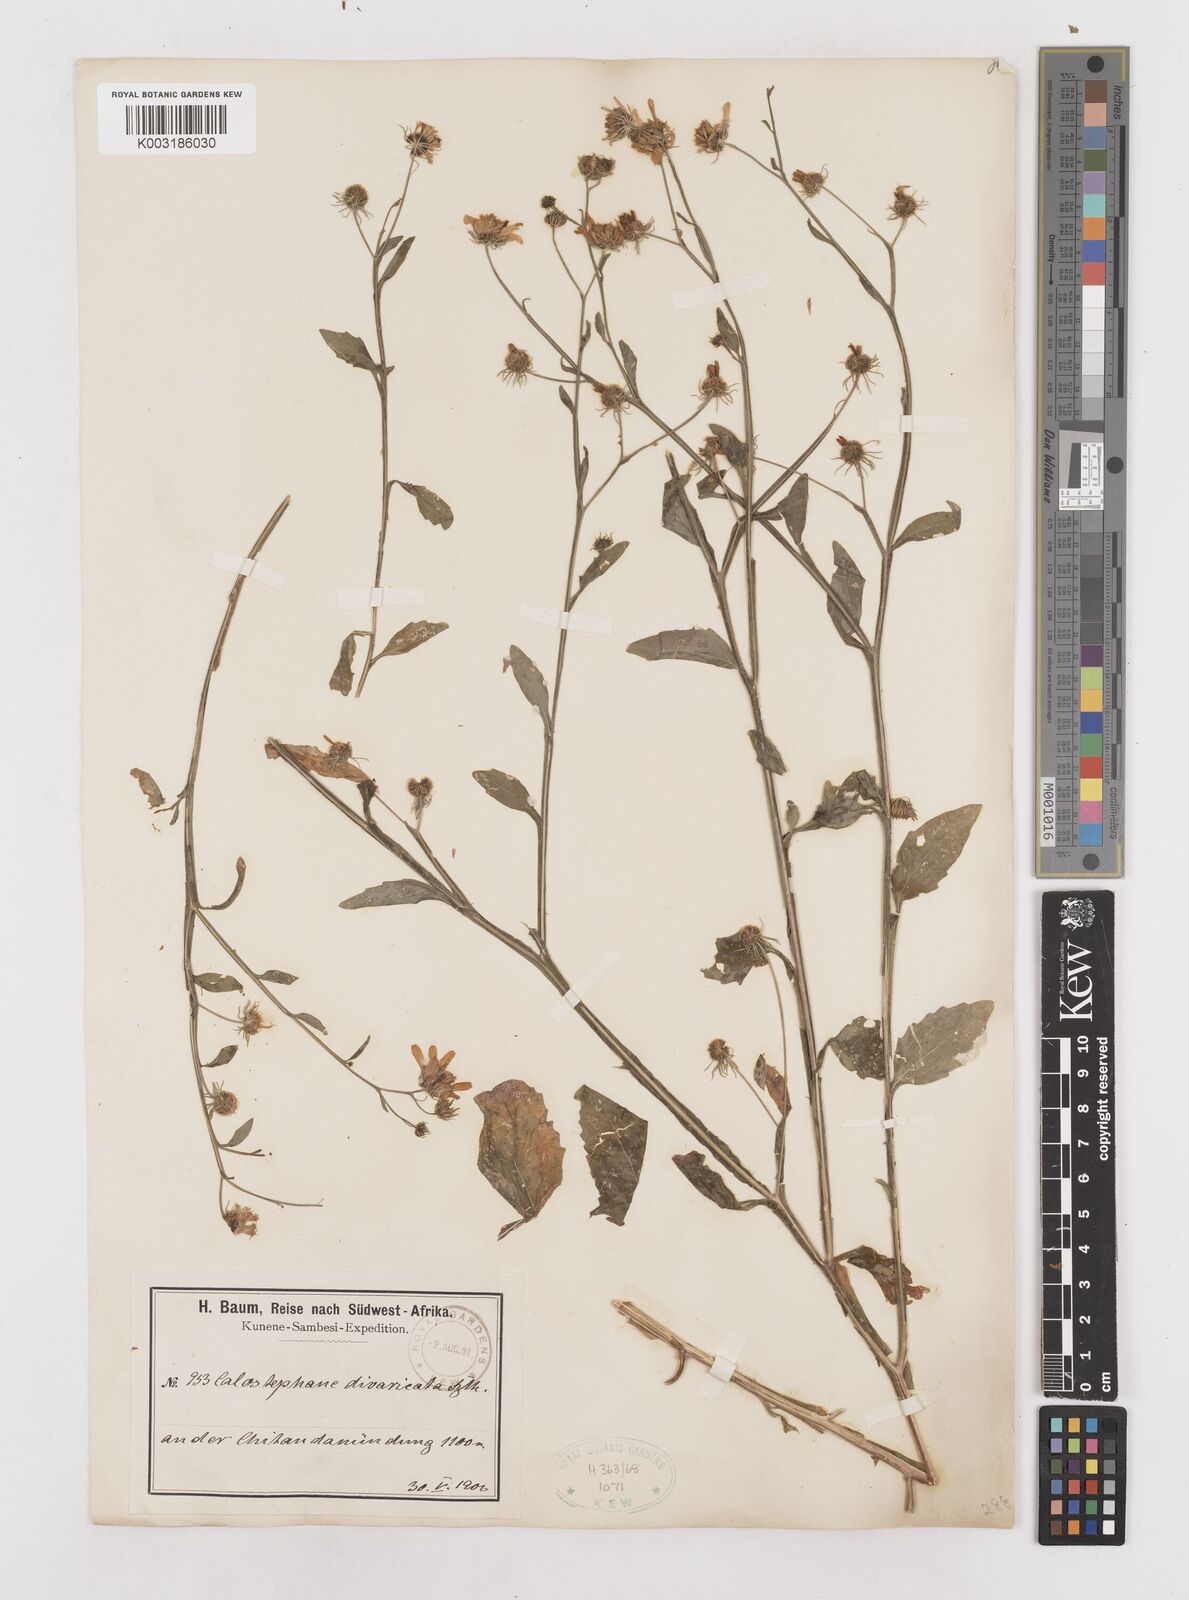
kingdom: Plantae
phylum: Tracheophyta
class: Magnoliopsida
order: Asterales
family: Asteraceae
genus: Calostephane
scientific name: Calostephane divaricata
